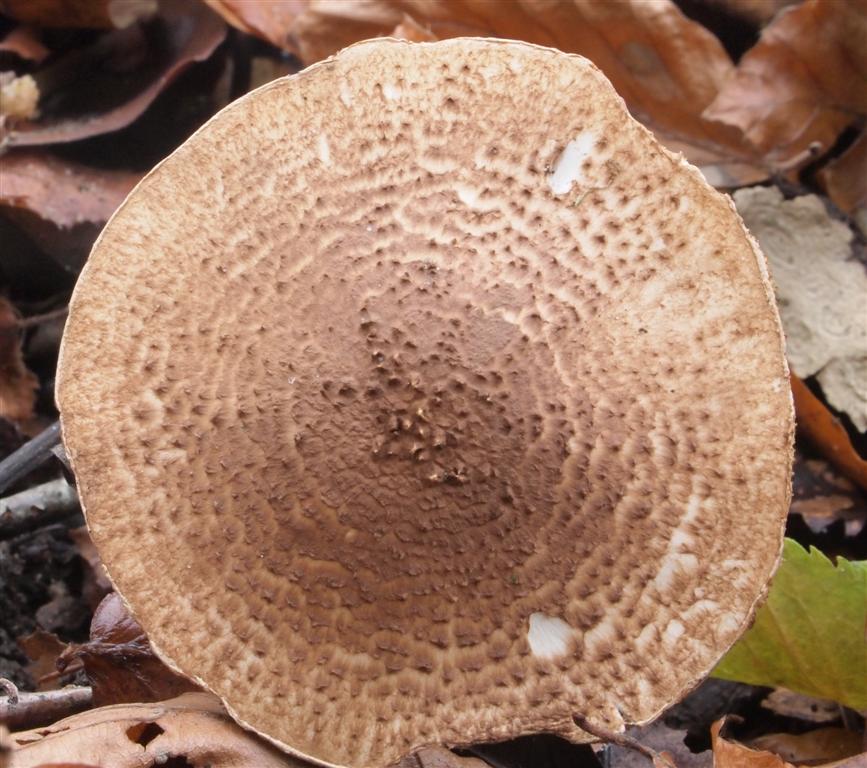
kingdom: Fungi
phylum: Basidiomycota
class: Agaricomycetes
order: Agaricales
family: Agaricaceae
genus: Echinoderma
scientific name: Echinoderma asperum
